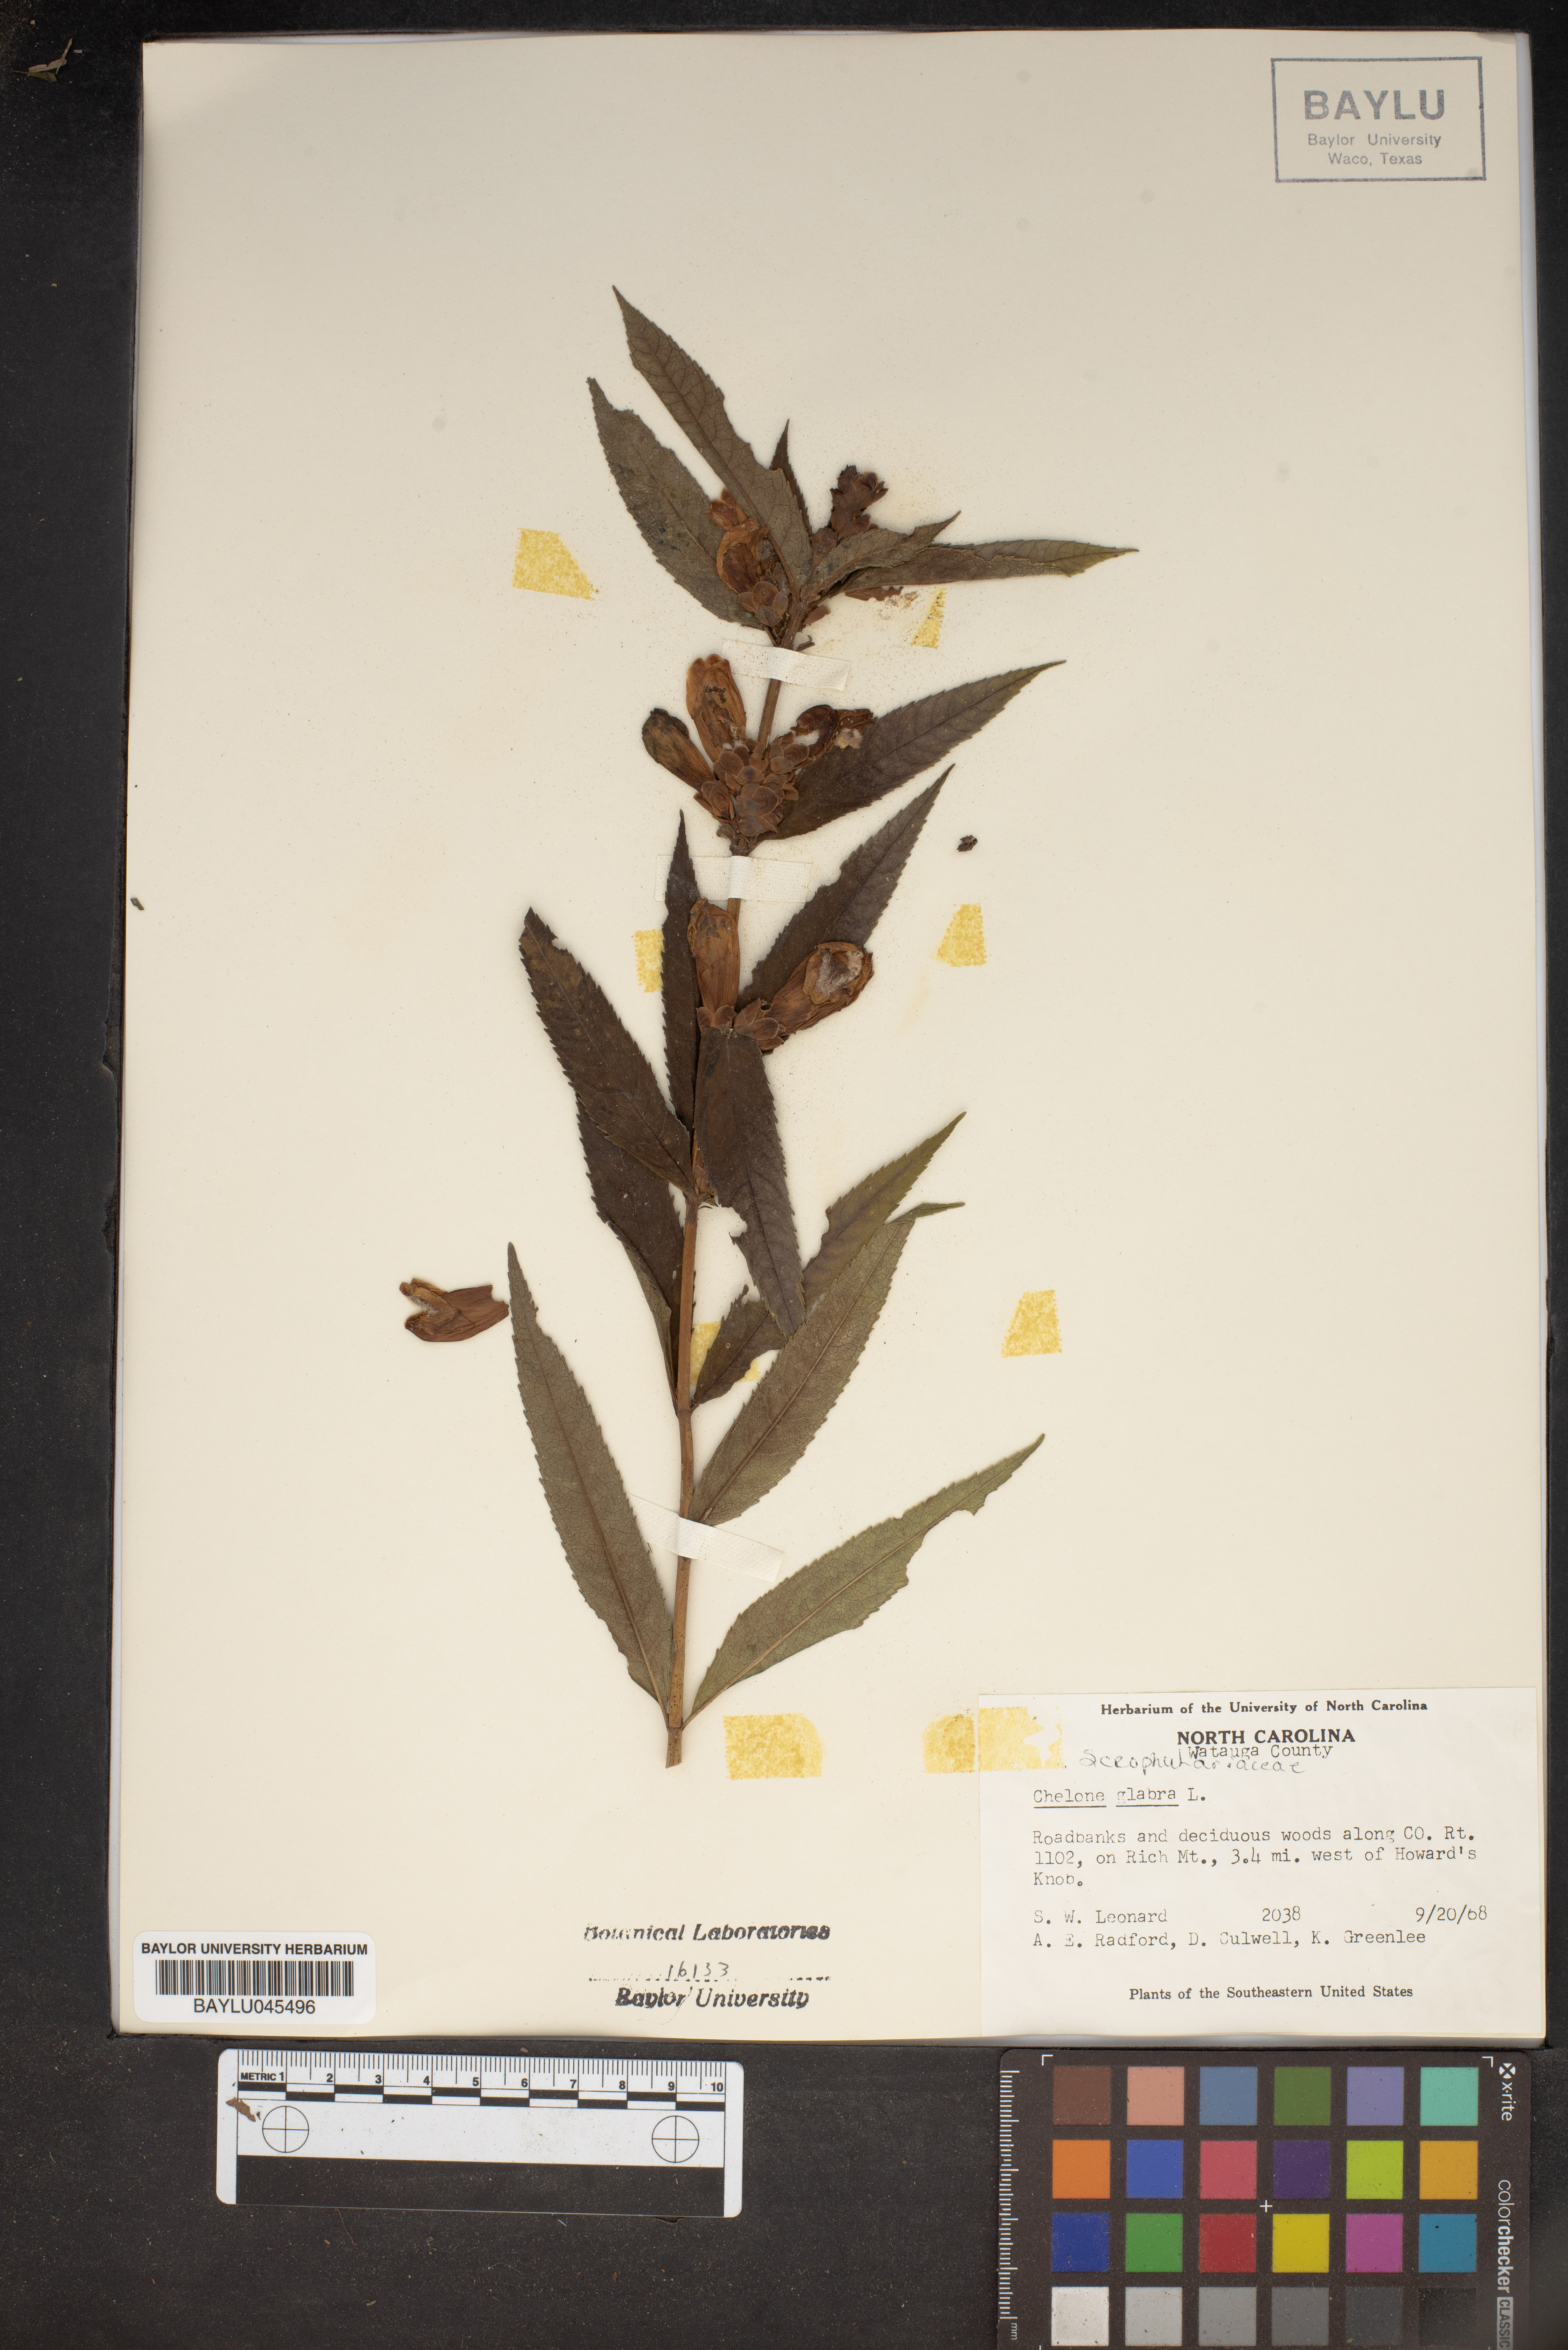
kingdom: Plantae
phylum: Tracheophyta
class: Magnoliopsida
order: Lamiales
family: Plantaginaceae
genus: Chelone
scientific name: Chelone glabra
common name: Snakehead
